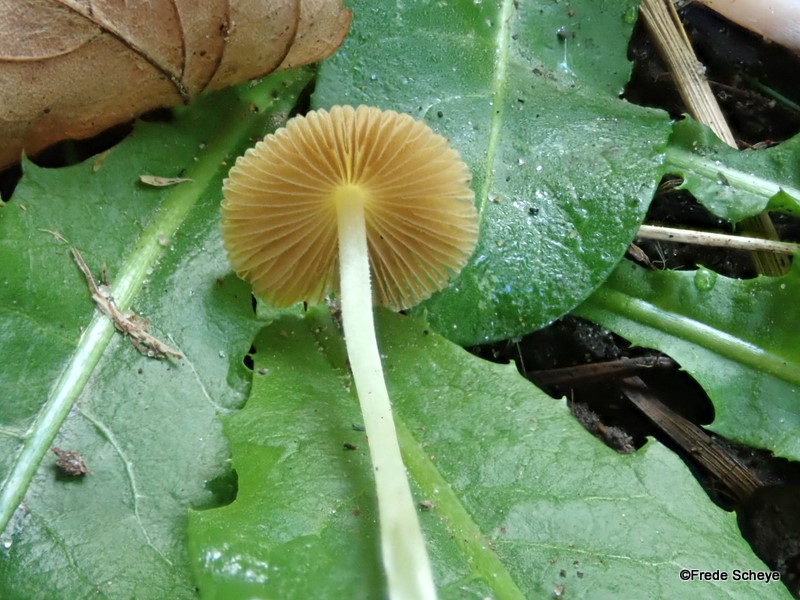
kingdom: Fungi
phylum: Basidiomycota
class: Agaricomycetes
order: Agaricales
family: Bolbitiaceae
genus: Bolbitius
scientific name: Bolbitius titubans
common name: almindelig gulhat
